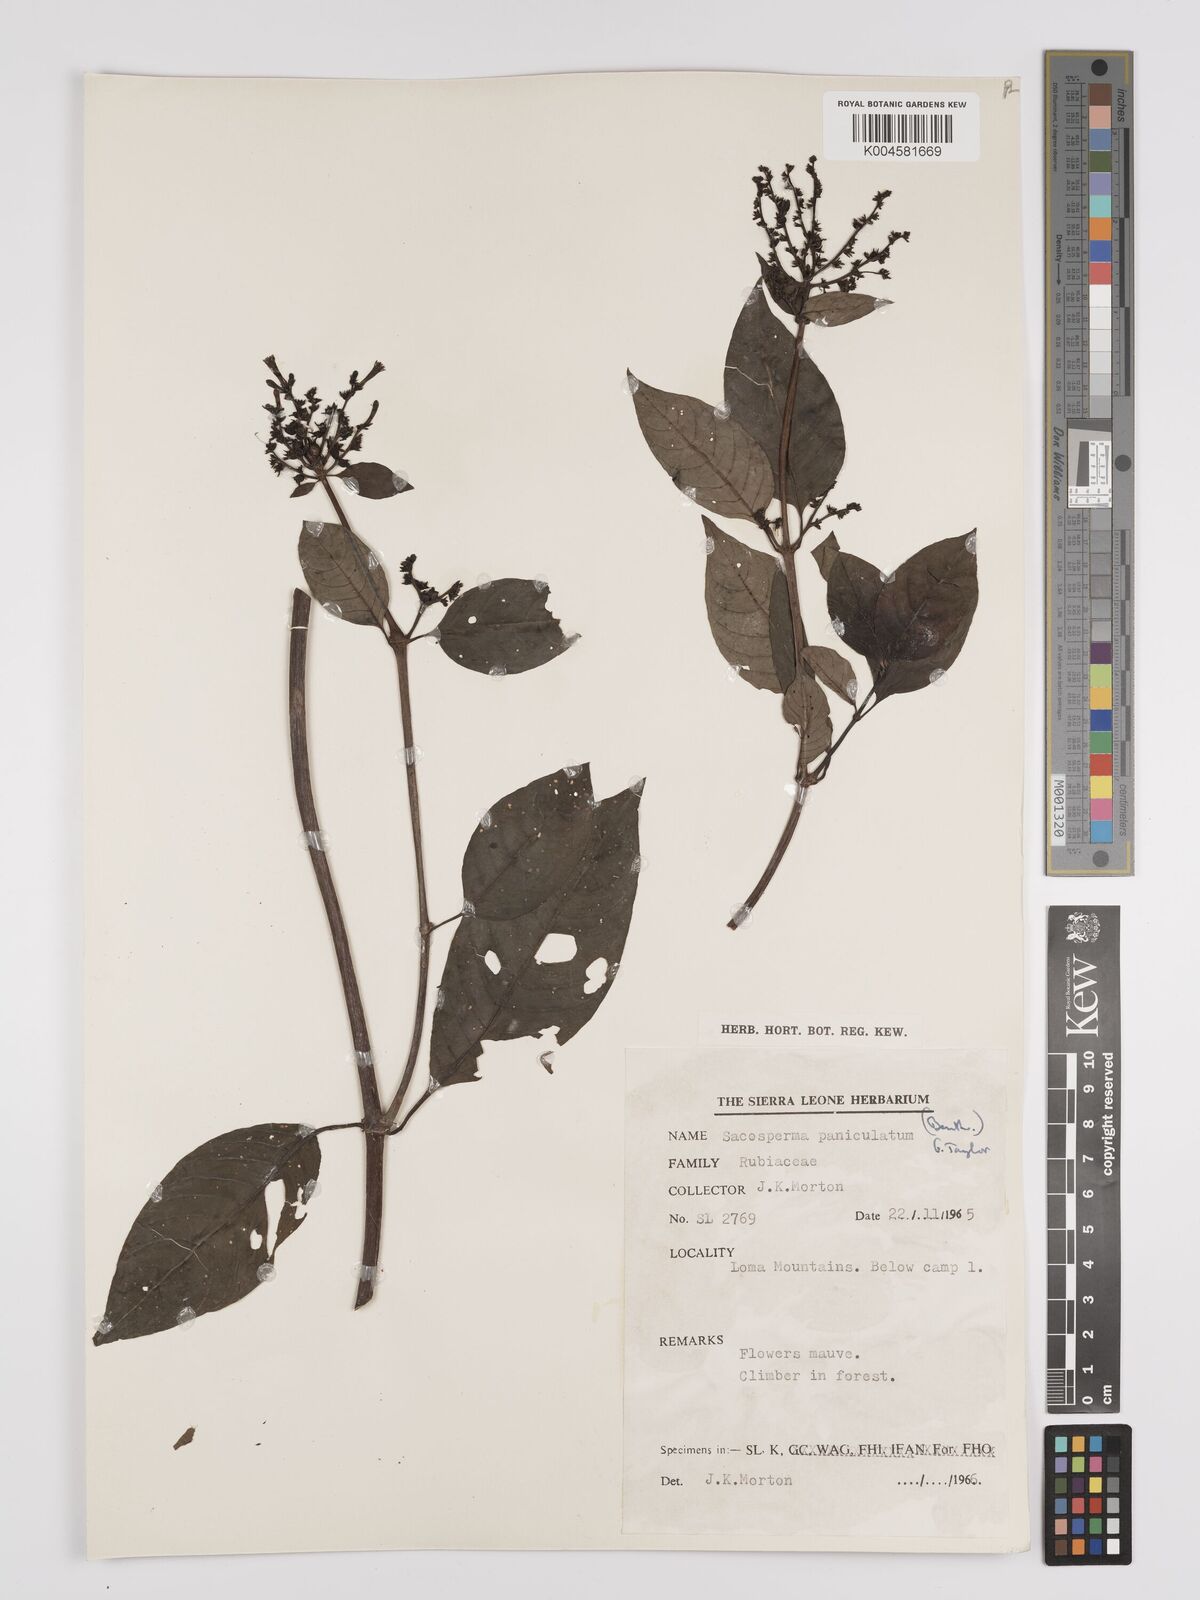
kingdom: Plantae
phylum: Tracheophyta
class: Magnoliopsida
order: Gentianales
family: Rubiaceae
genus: Sacosperma
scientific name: Sacosperma paniculatum
